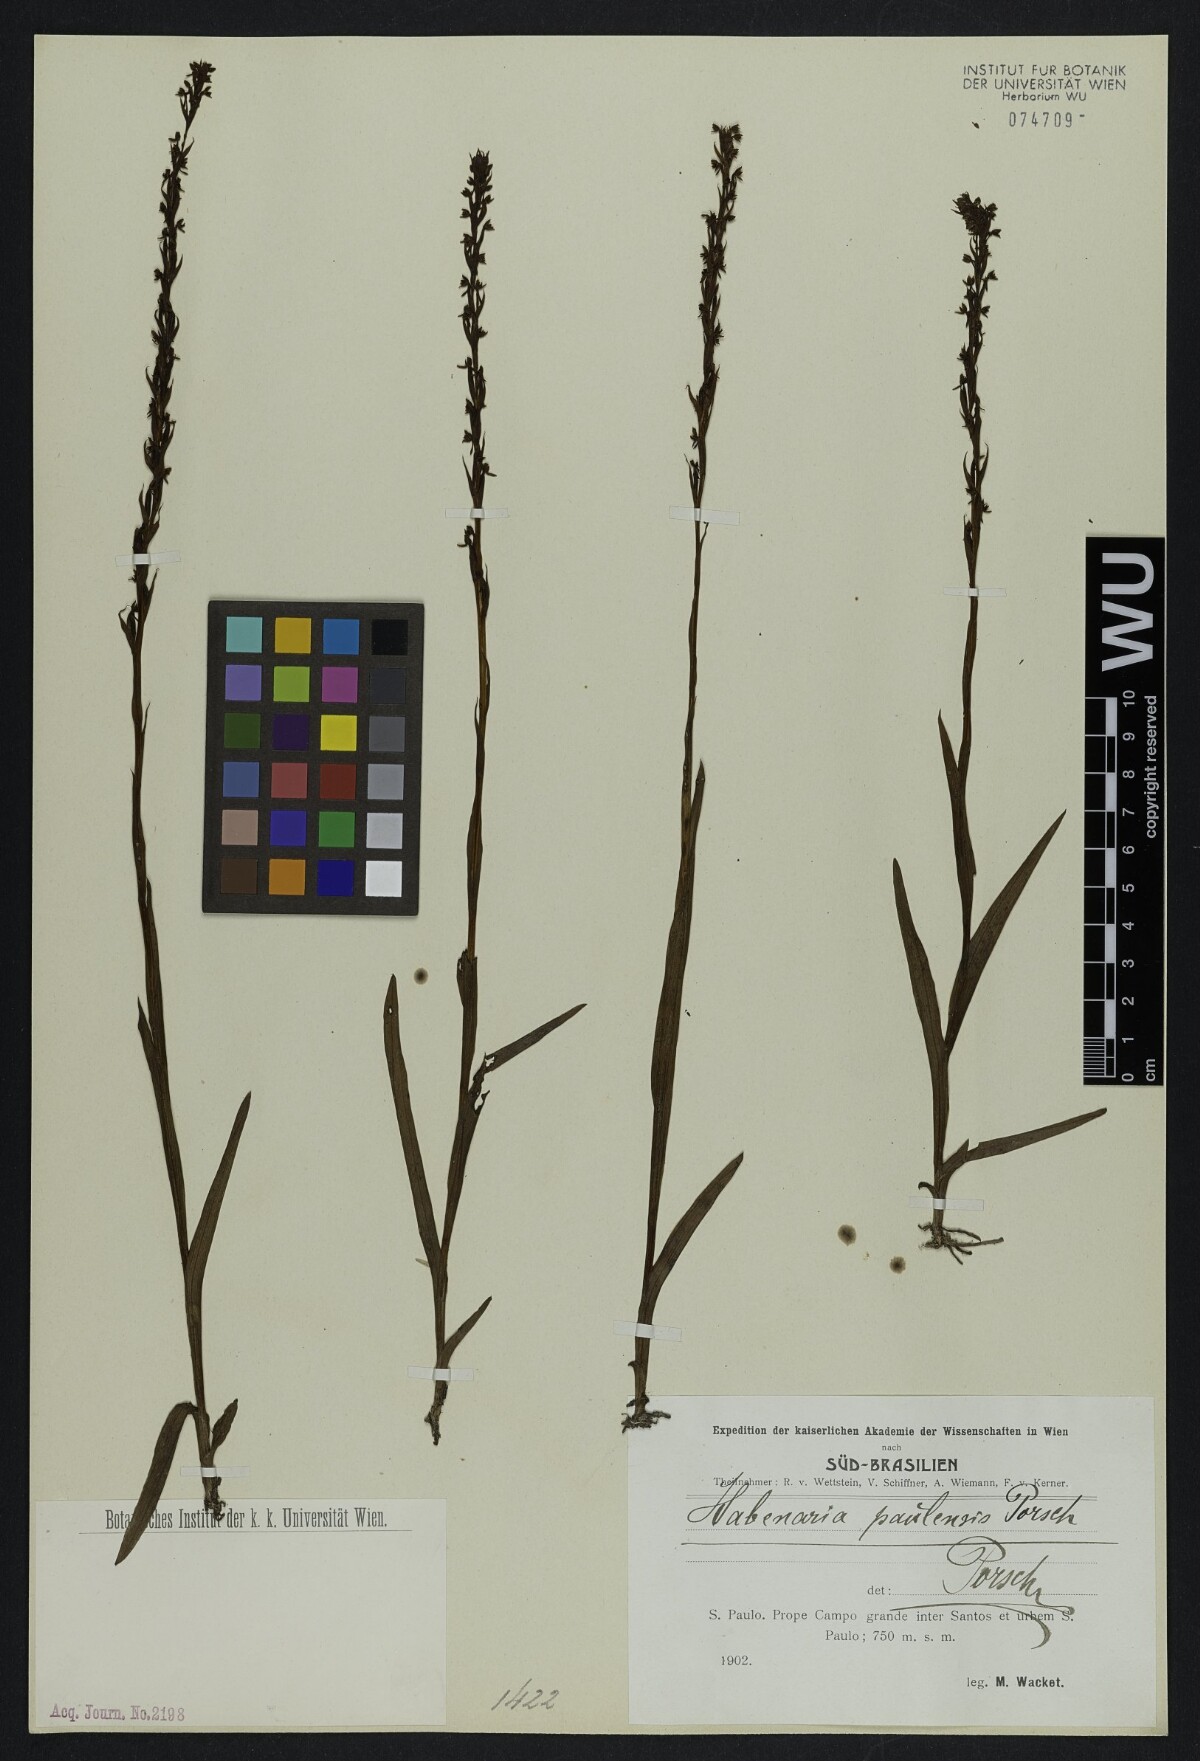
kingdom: Plantae
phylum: Tracheophyta
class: Liliopsida
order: Asparagales
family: Orchidaceae
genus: Habenaria
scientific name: Habenaria paulensis
